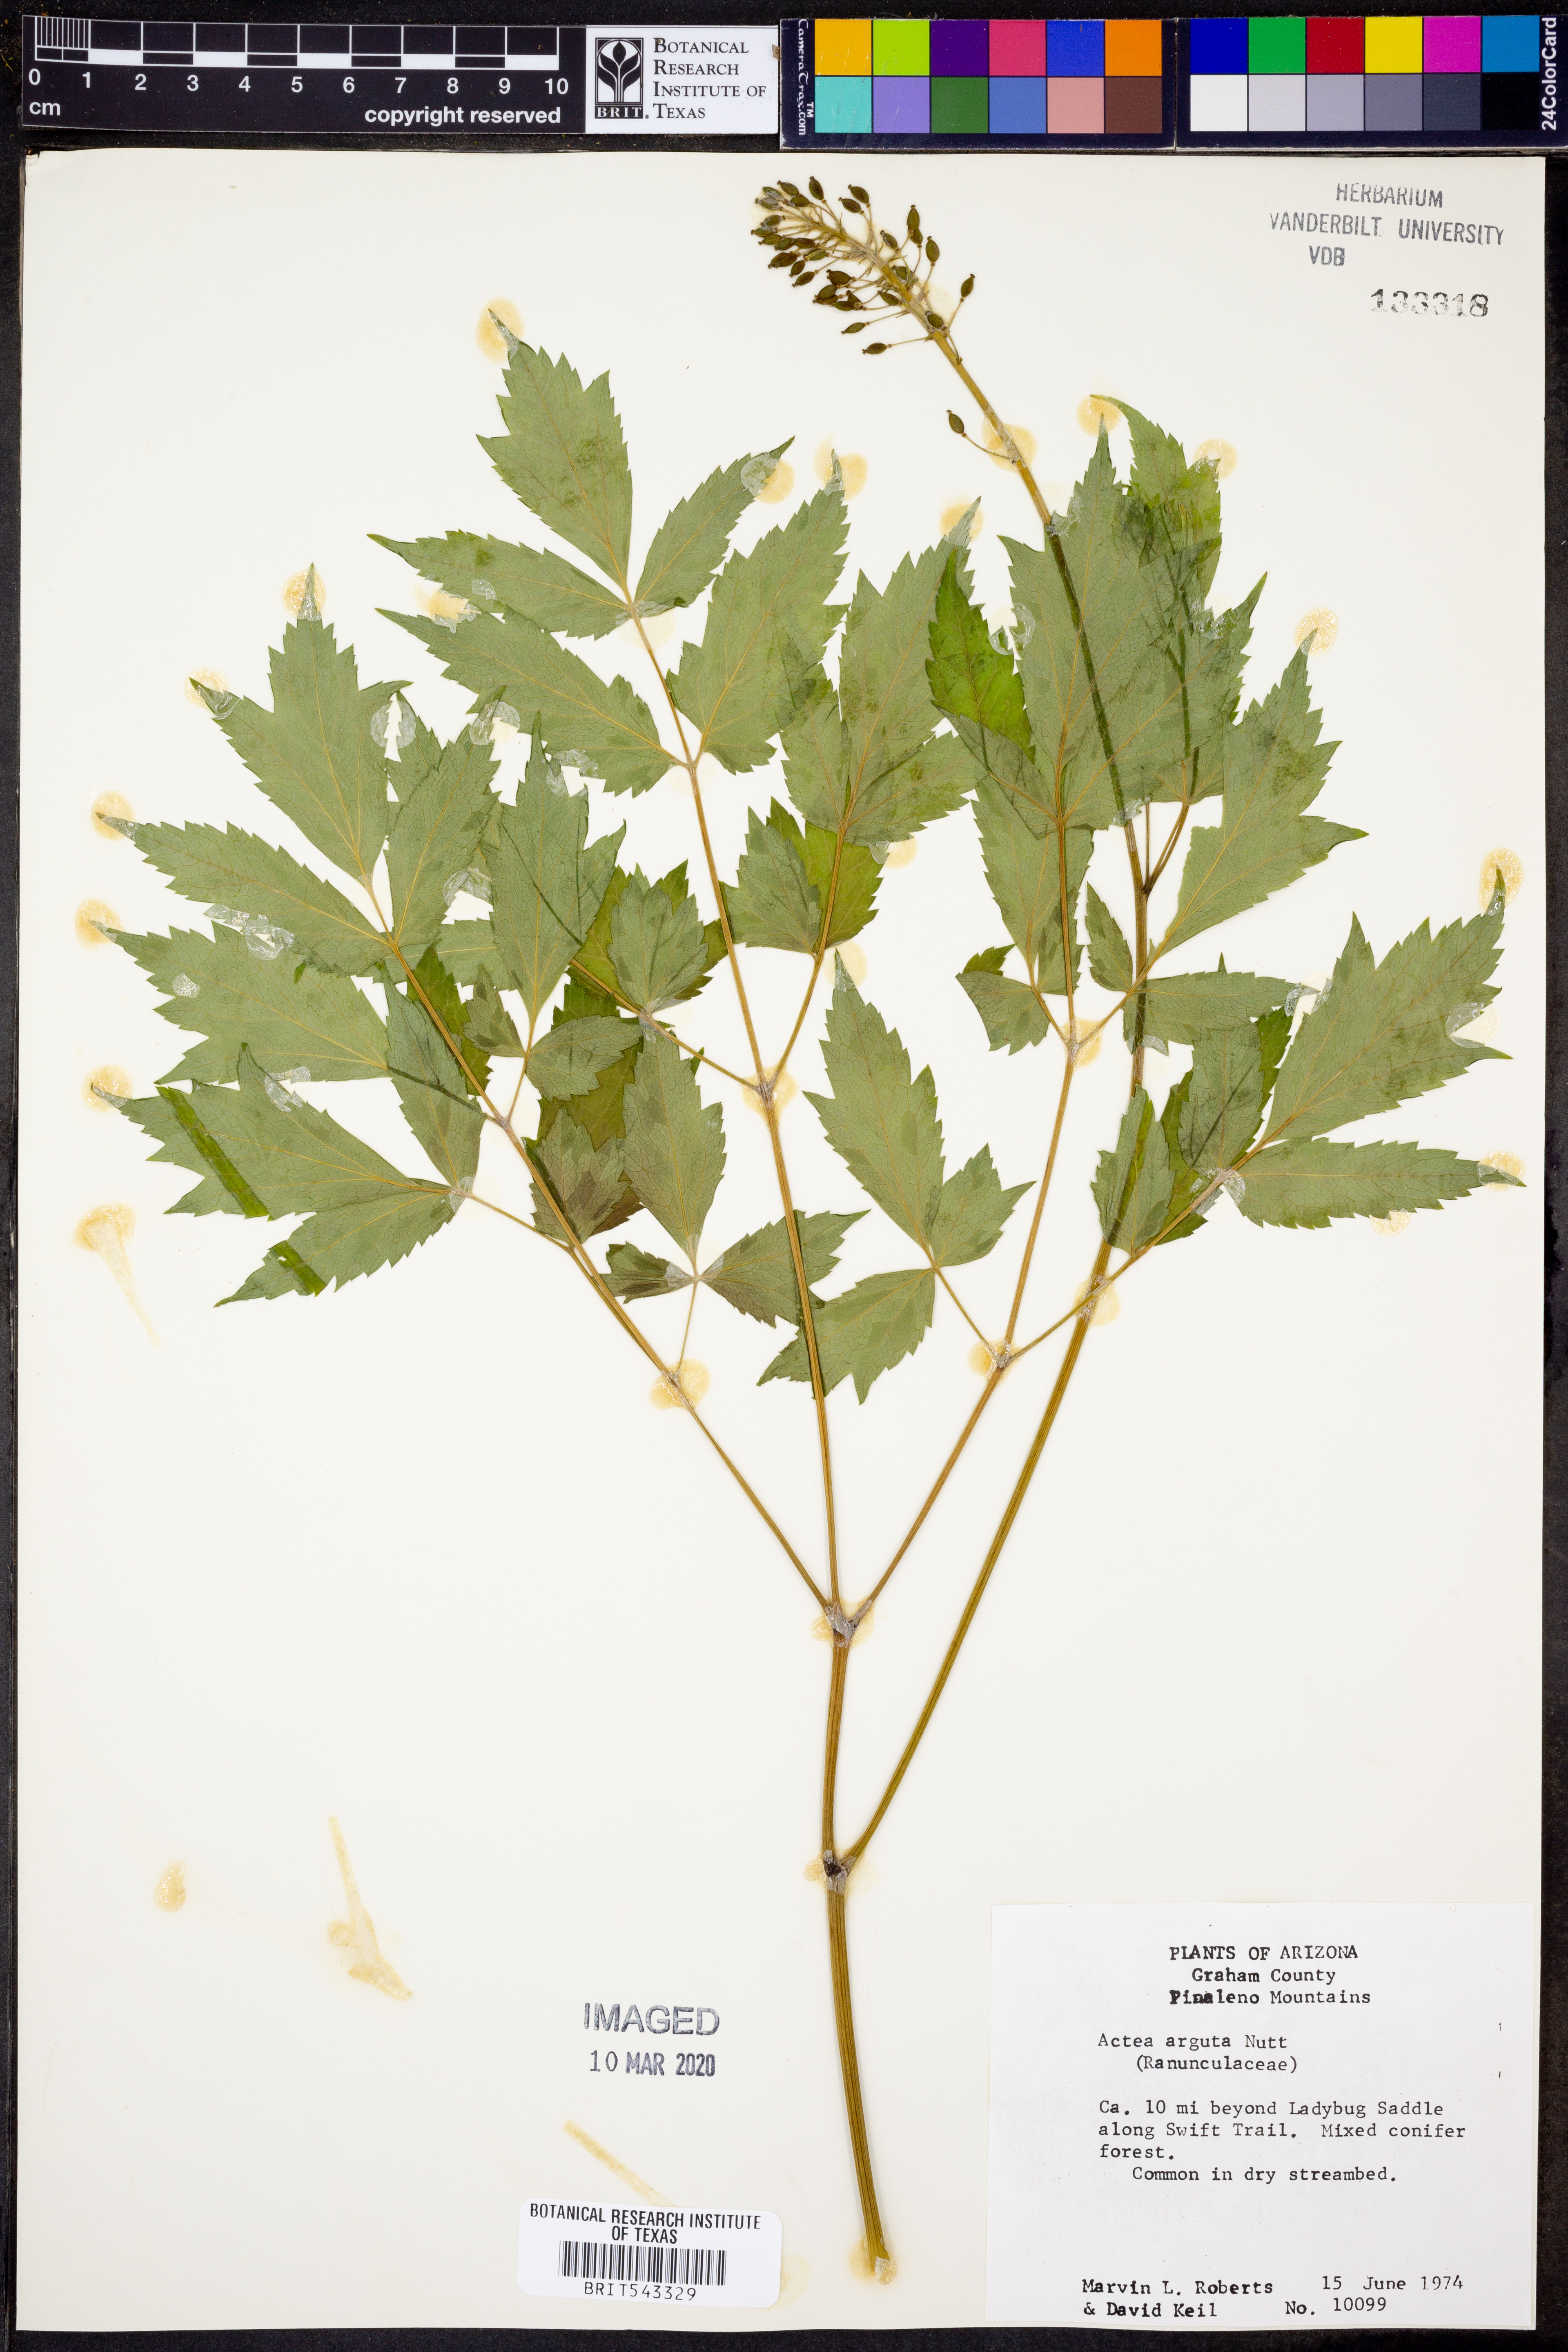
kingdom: Plantae
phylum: Tracheophyta
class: Magnoliopsida
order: Ranunculales
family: Ranunculaceae
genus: Actaea
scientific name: Actaea rubra
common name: Red baneberry
